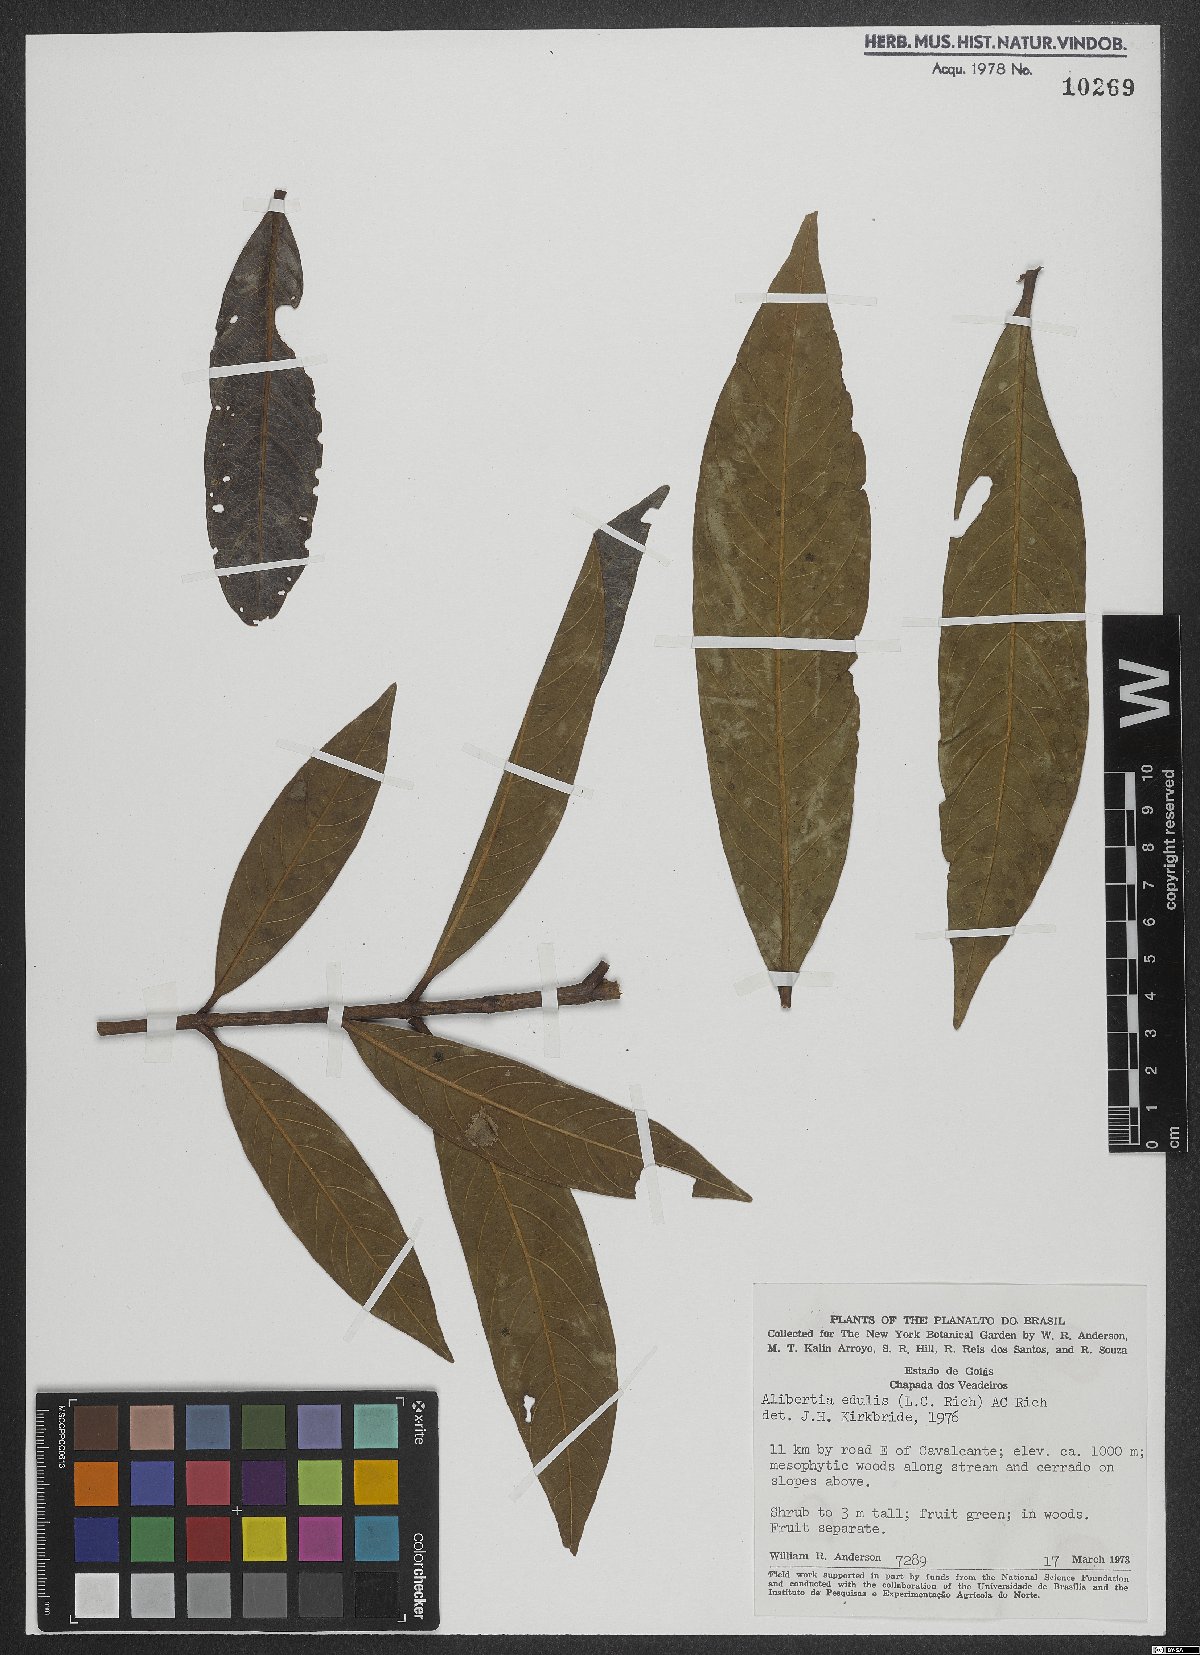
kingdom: Plantae
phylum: Tracheophyta
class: Magnoliopsida
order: Gentianales
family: Rubiaceae
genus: Alibertia
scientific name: Alibertia edulis
